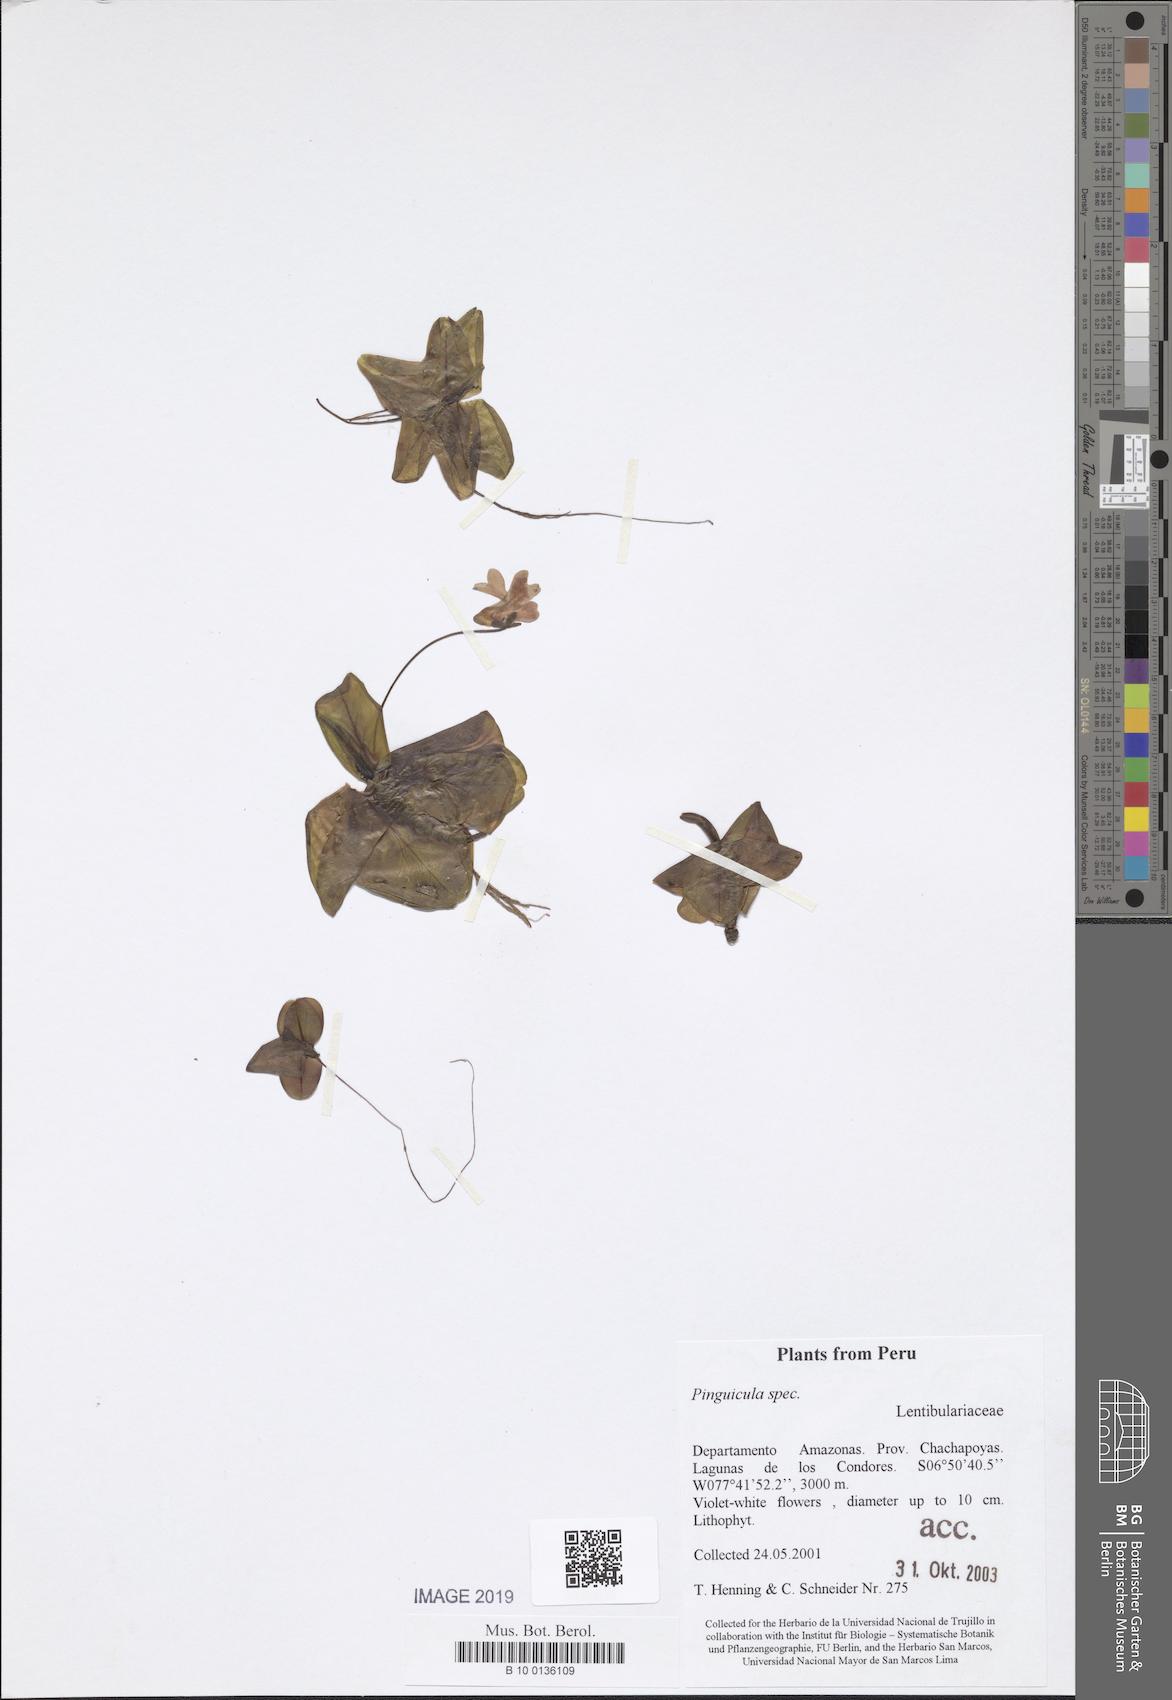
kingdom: Plantae
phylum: Tracheophyta
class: Magnoliopsida
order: Lamiales
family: Lentibulariaceae
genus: Pinguicula
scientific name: Pinguicula rosmarieae
